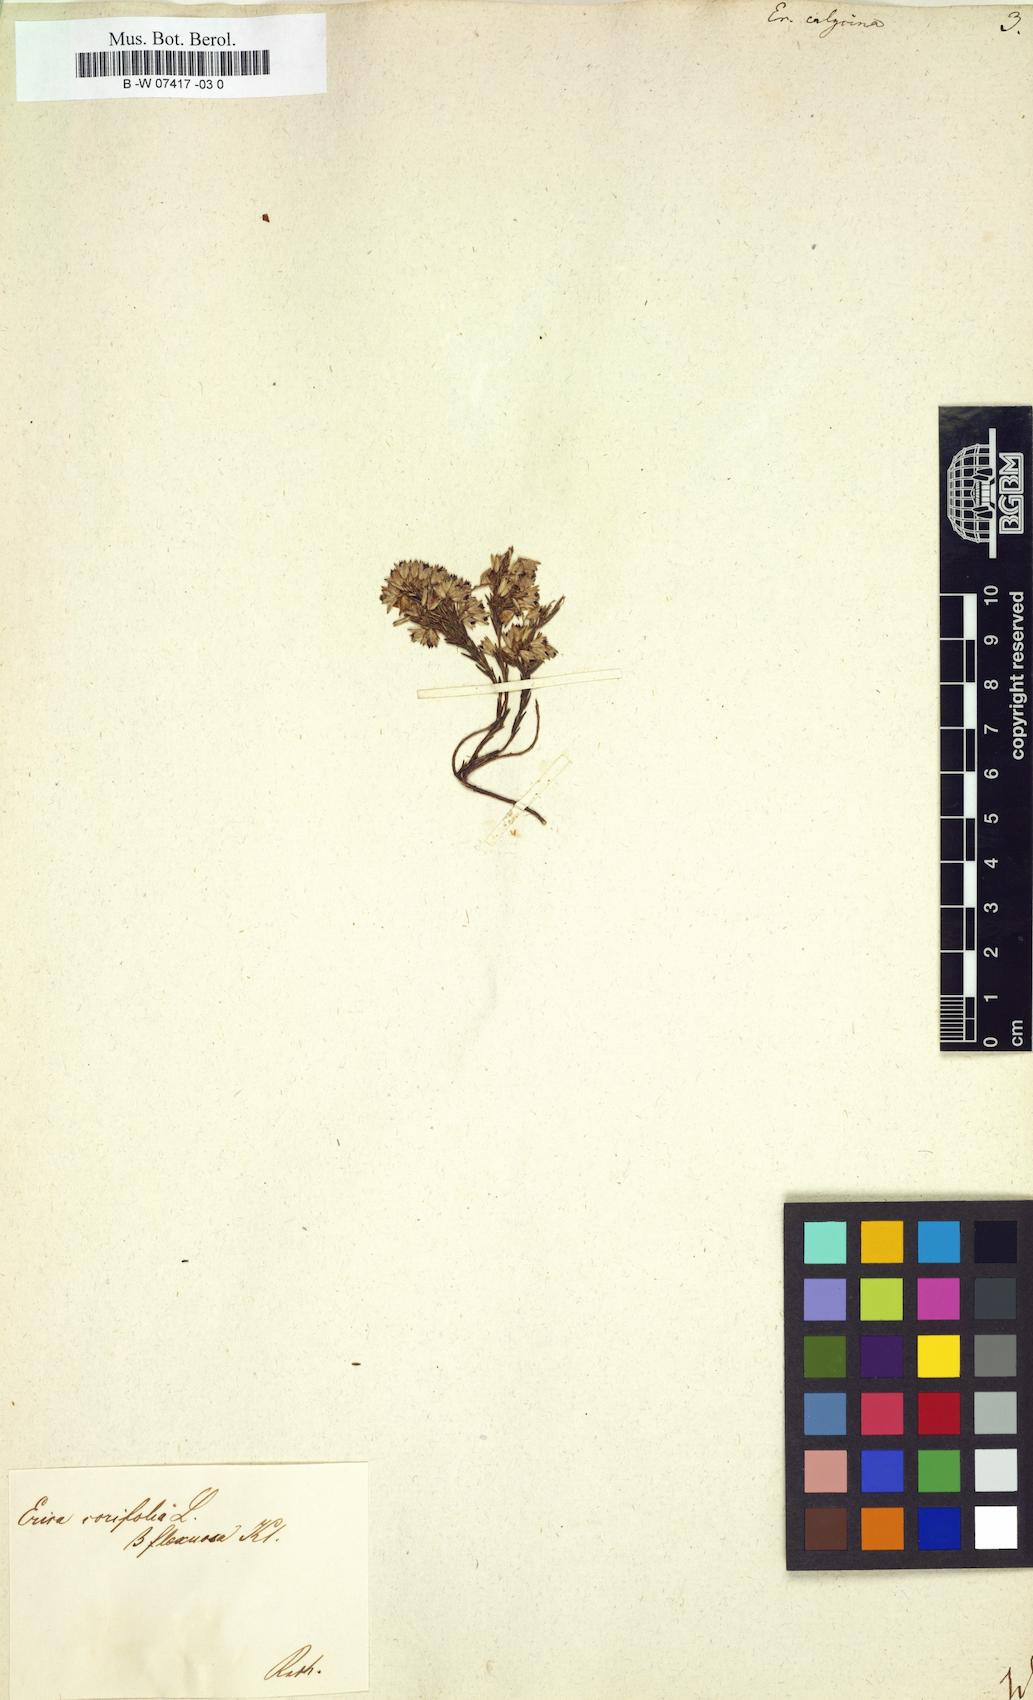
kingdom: Plantae
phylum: Tracheophyta
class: Magnoliopsida
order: Ericales
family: Ericaceae
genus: Erica
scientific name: Erica corifolia
